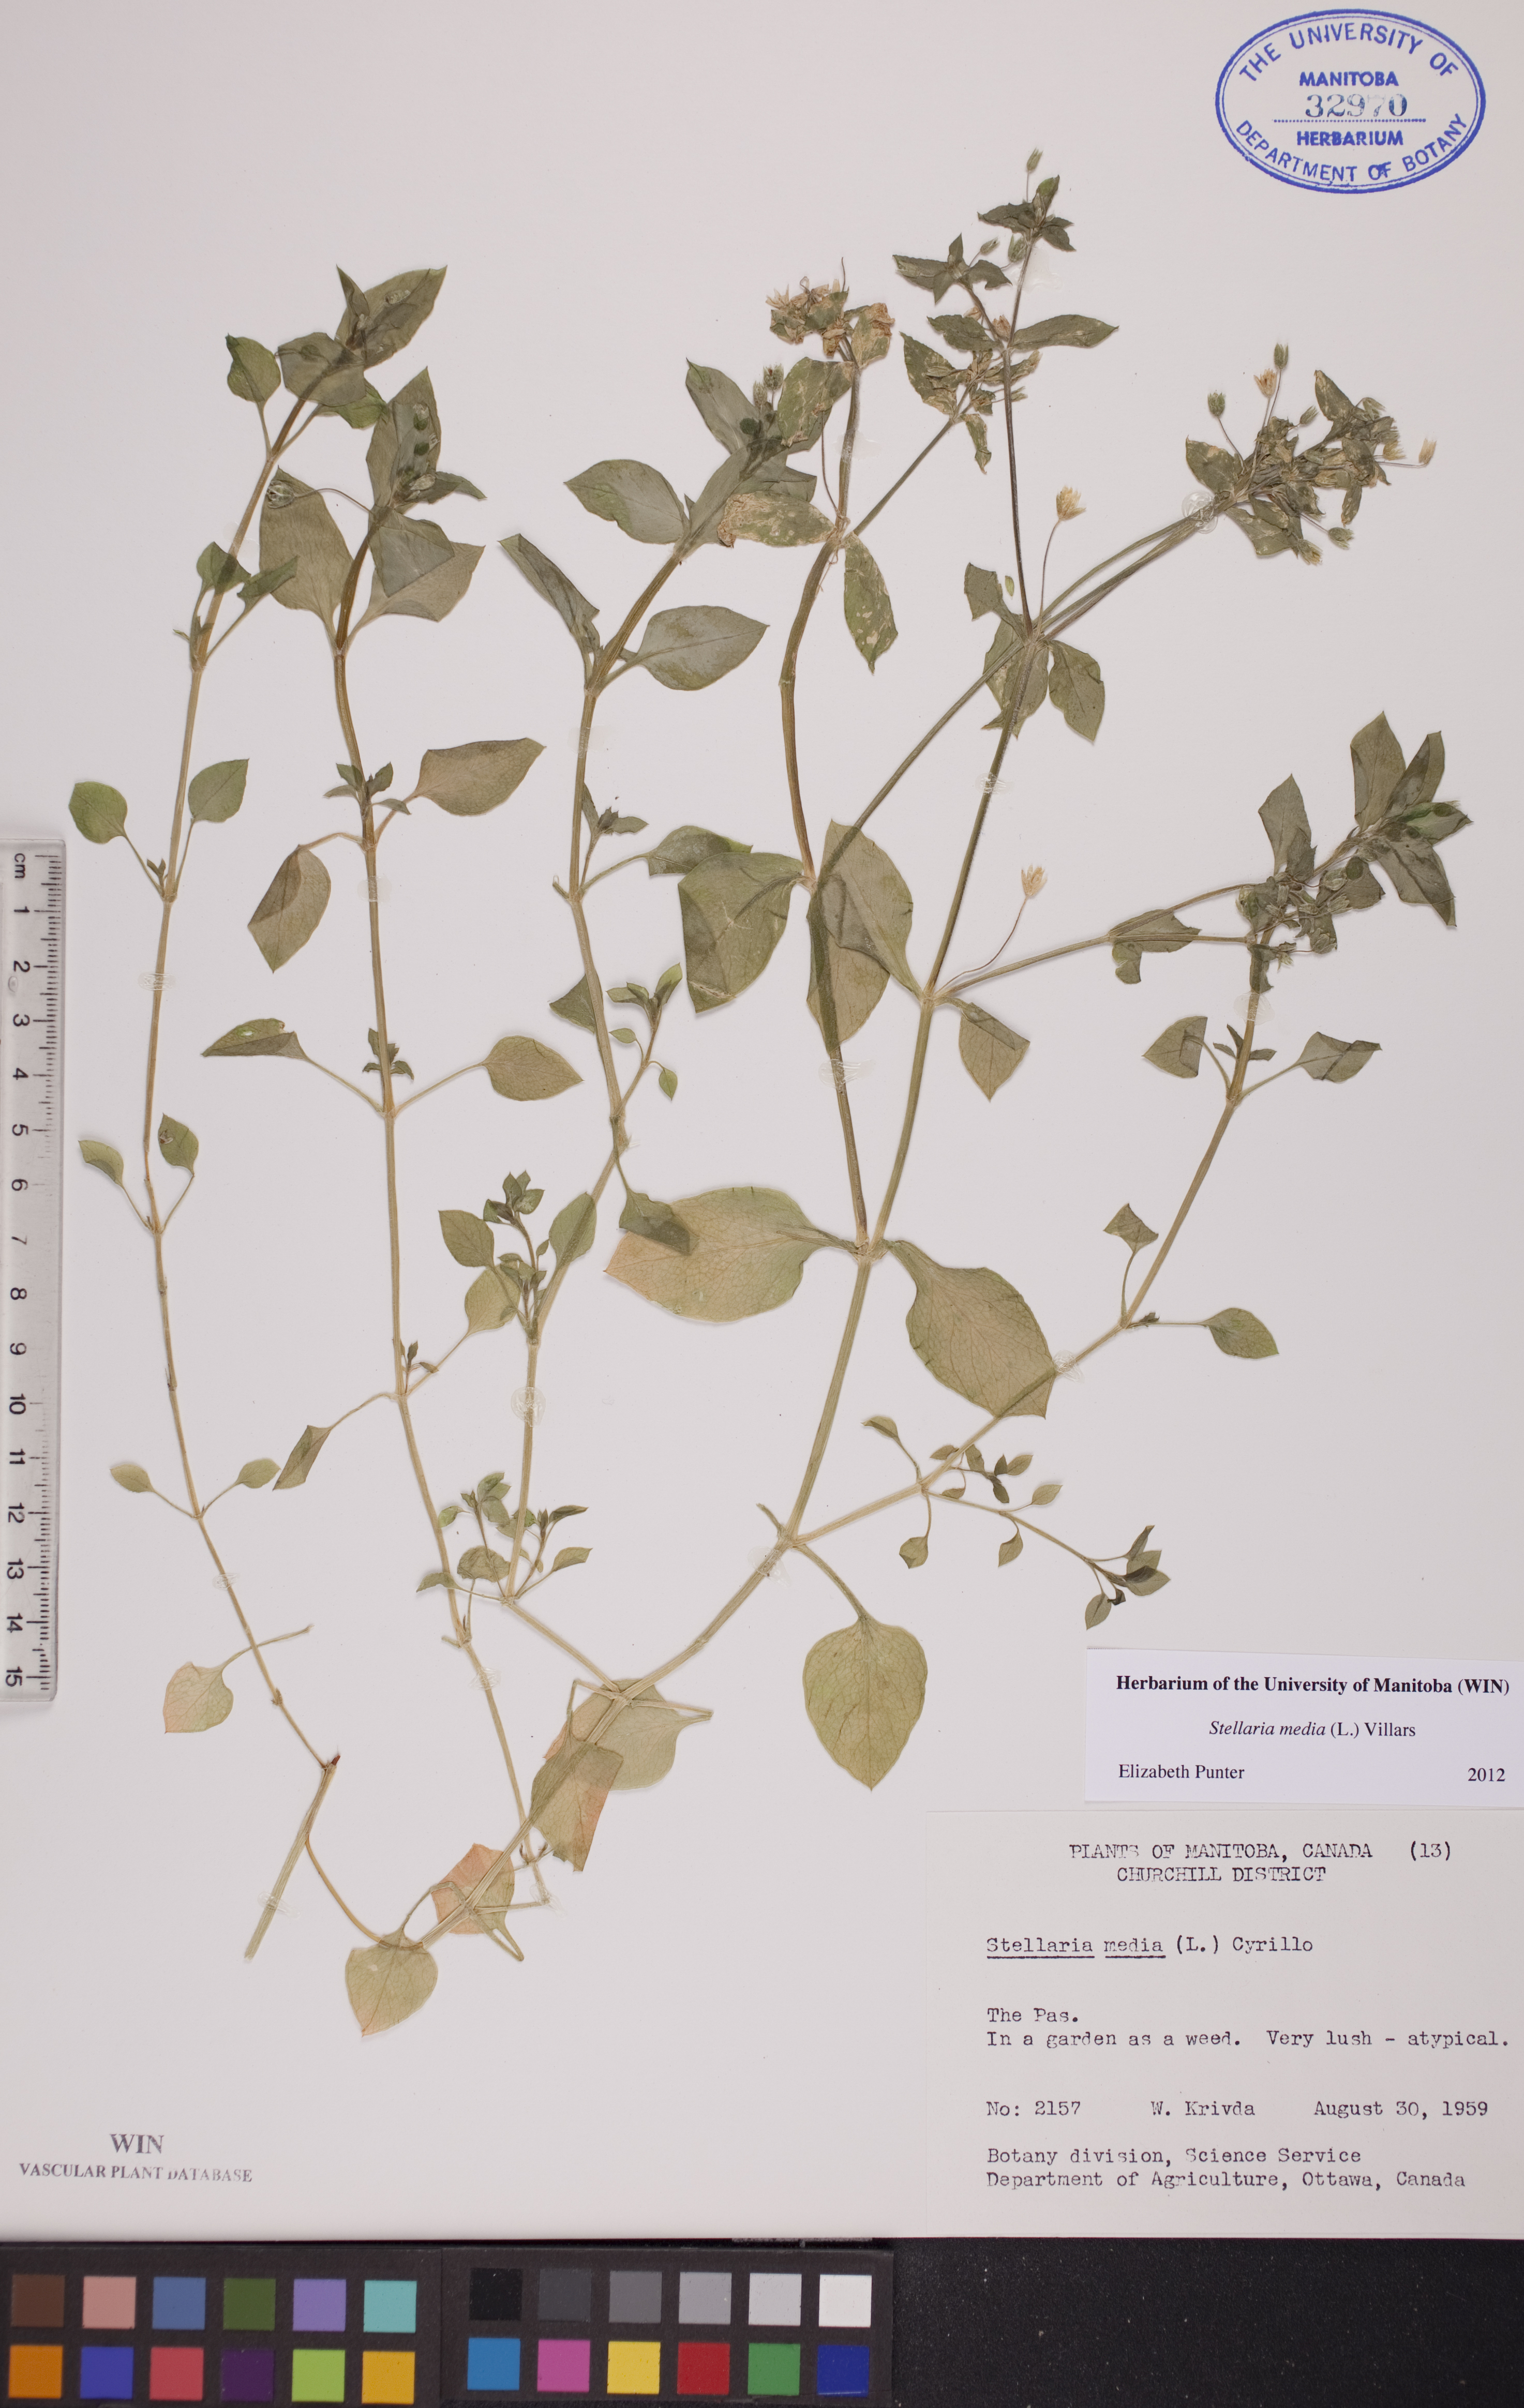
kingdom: Plantae
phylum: Tracheophyta
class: Magnoliopsida
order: Caryophyllales
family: Caryophyllaceae
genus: Stellaria
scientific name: Stellaria media
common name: Common chickweed
